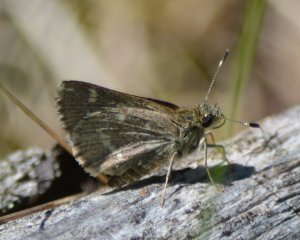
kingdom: Animalia
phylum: Arthropoda
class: Insecta
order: Lepidoptera
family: Hesperiidae
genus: Mastor
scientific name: Mastor hegon
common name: Pepper and Salt Skipper
